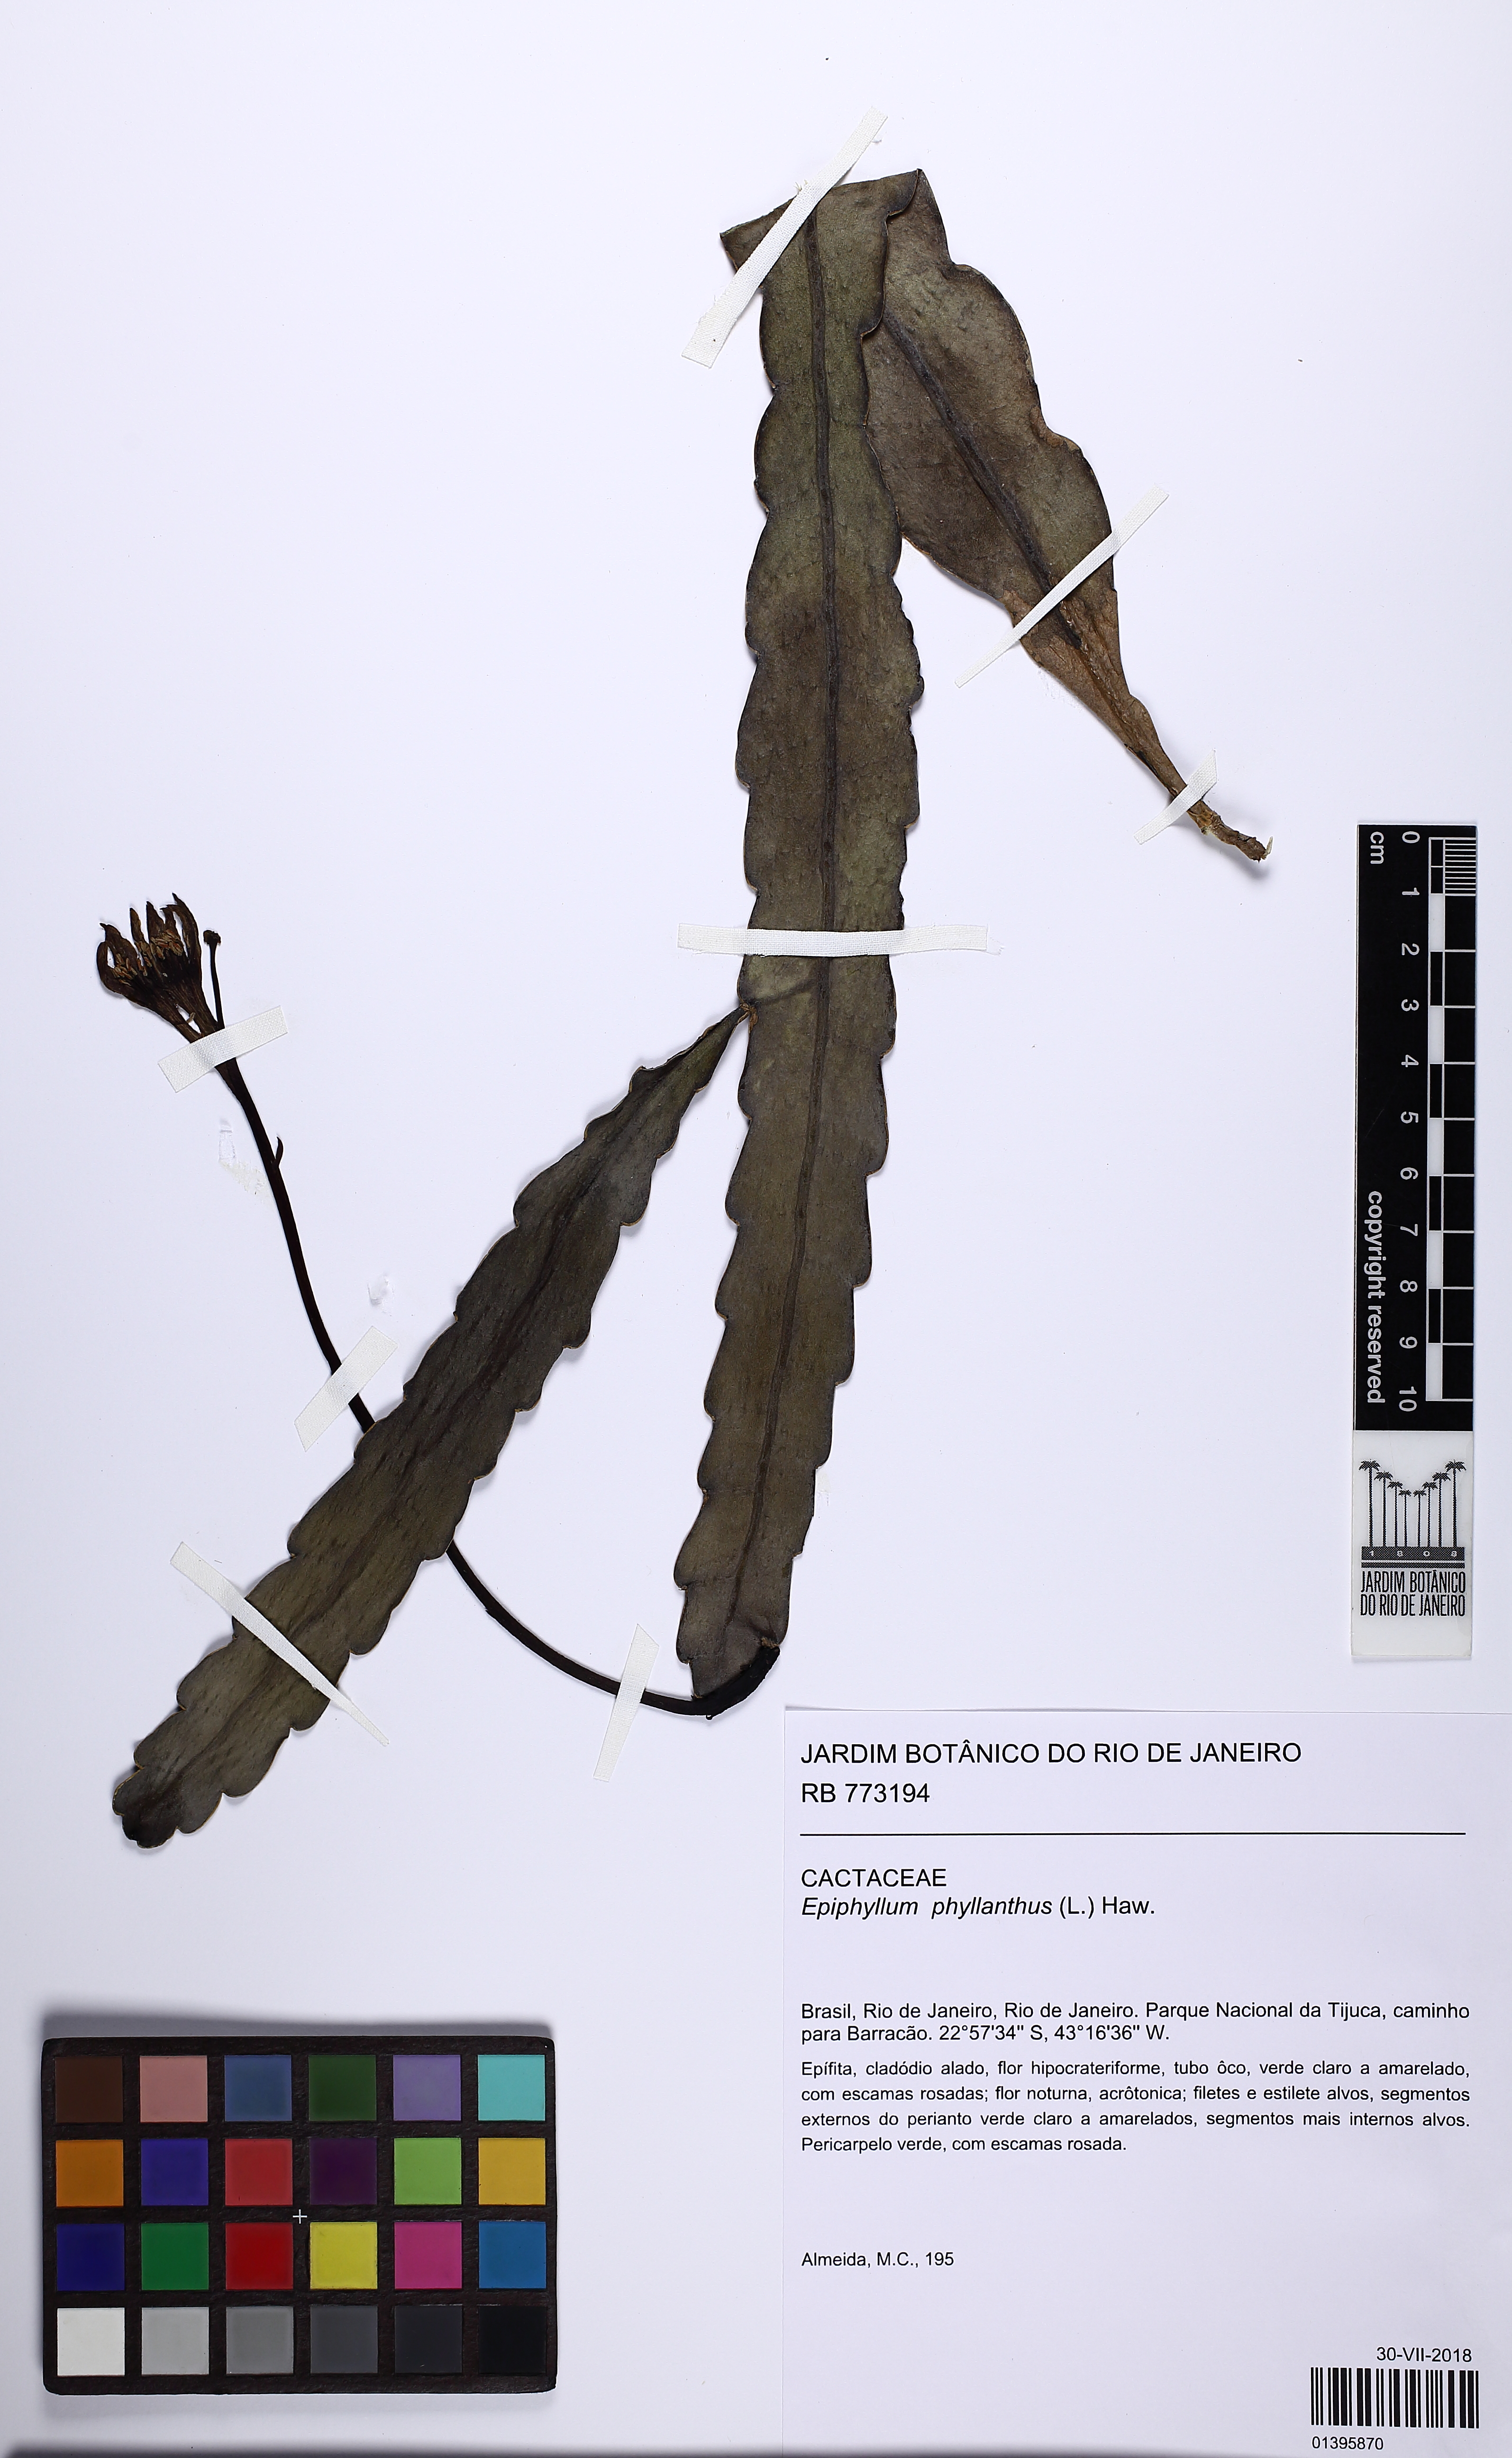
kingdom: Plantae
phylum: Tracheophyta
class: Magnoliopsida
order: Caryophyllales
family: Cactaceae
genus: Epiphyllum
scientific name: Epiphyllum phyllanthus
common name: Climbing cactus
